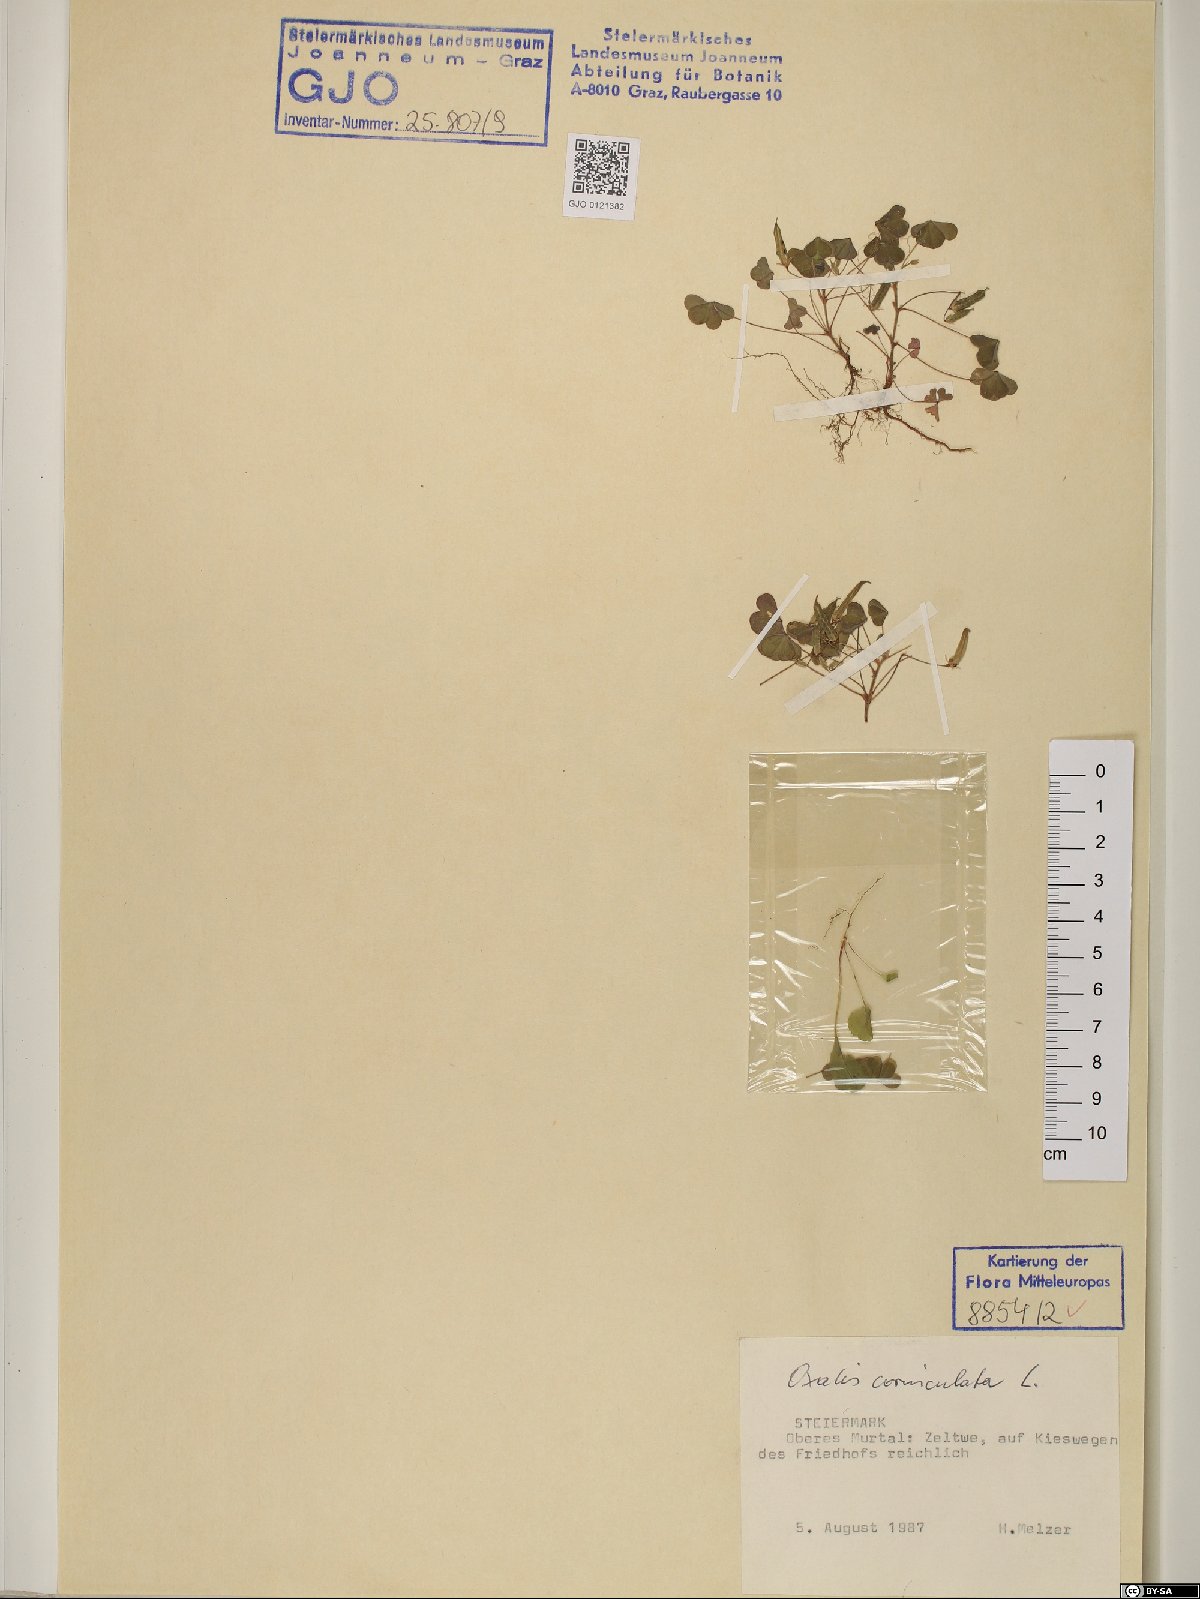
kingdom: Plantae
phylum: Tracheophyta
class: Magnoliopsida
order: Oxalidales
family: Oxalidaceae
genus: Oxalis
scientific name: Oxalis corniculata
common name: Procumbent yellow-sorrel
